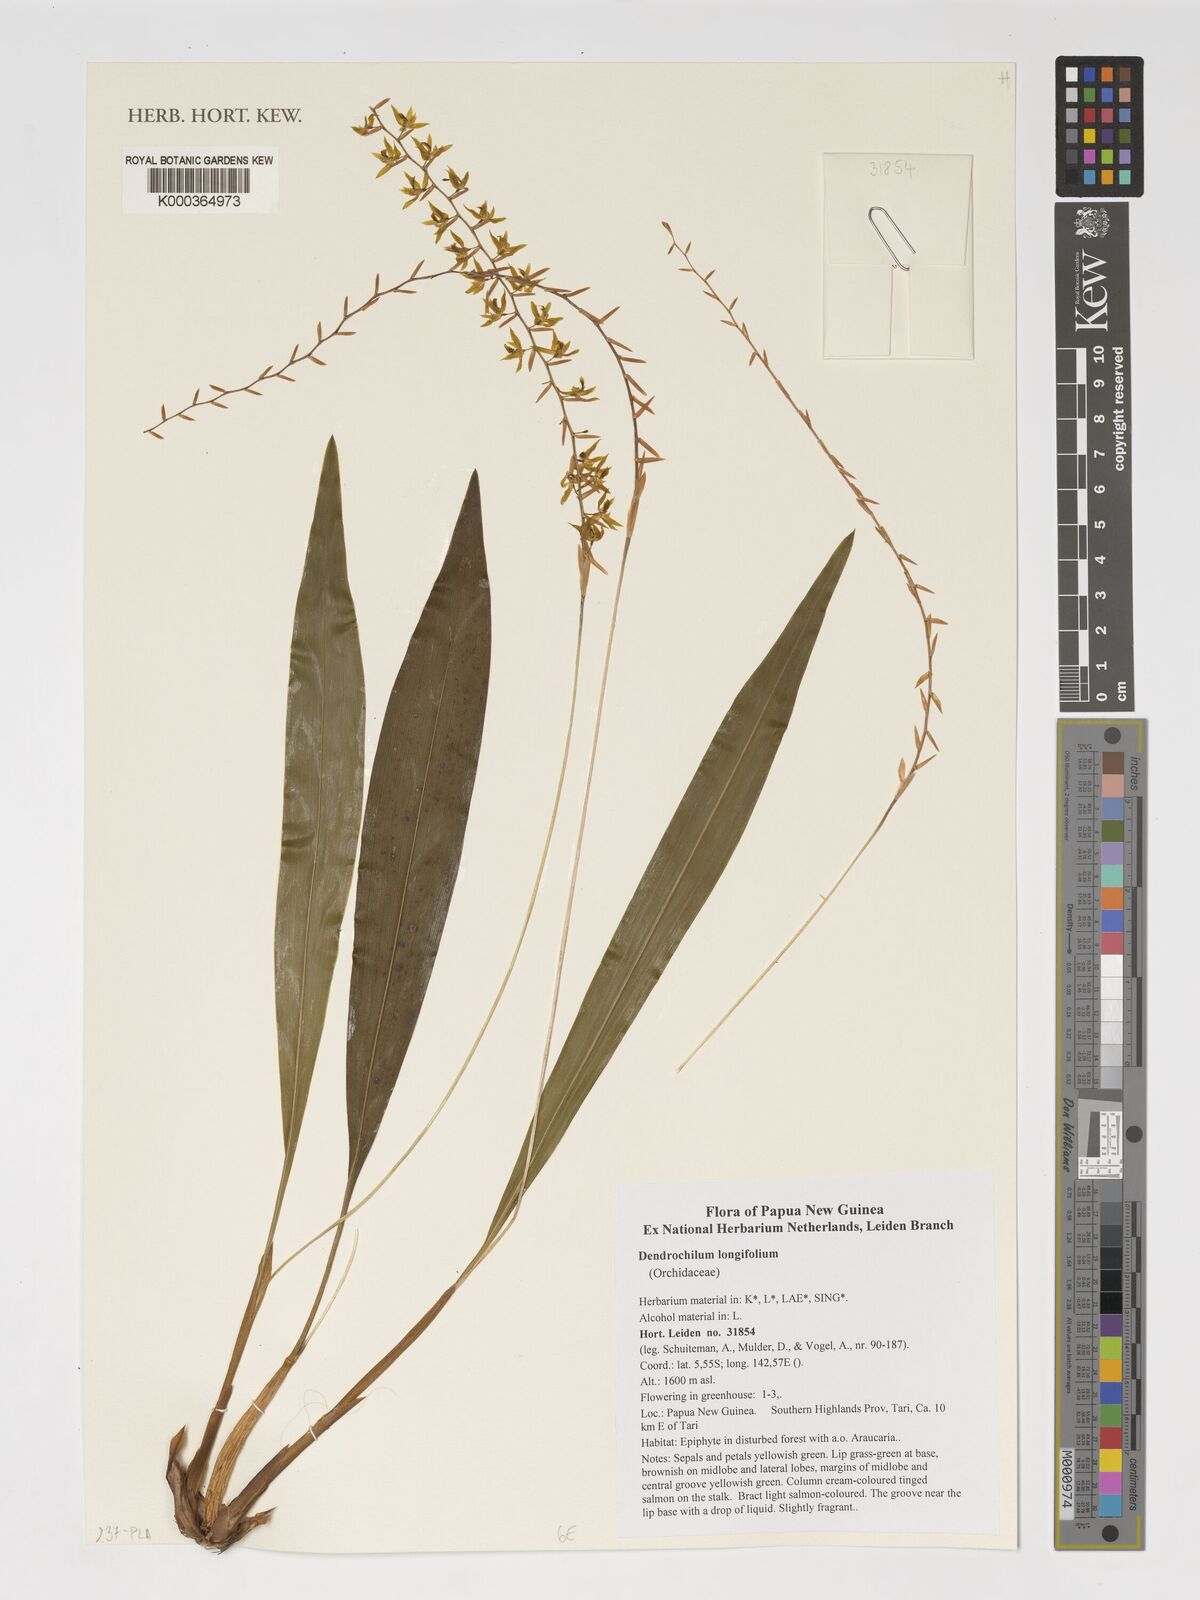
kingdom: Plantae
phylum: Tracheophyta
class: Liliopsida
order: Asparagales
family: Orchidaceae
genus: Coelogyne
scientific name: Coelogyne bracteosa
